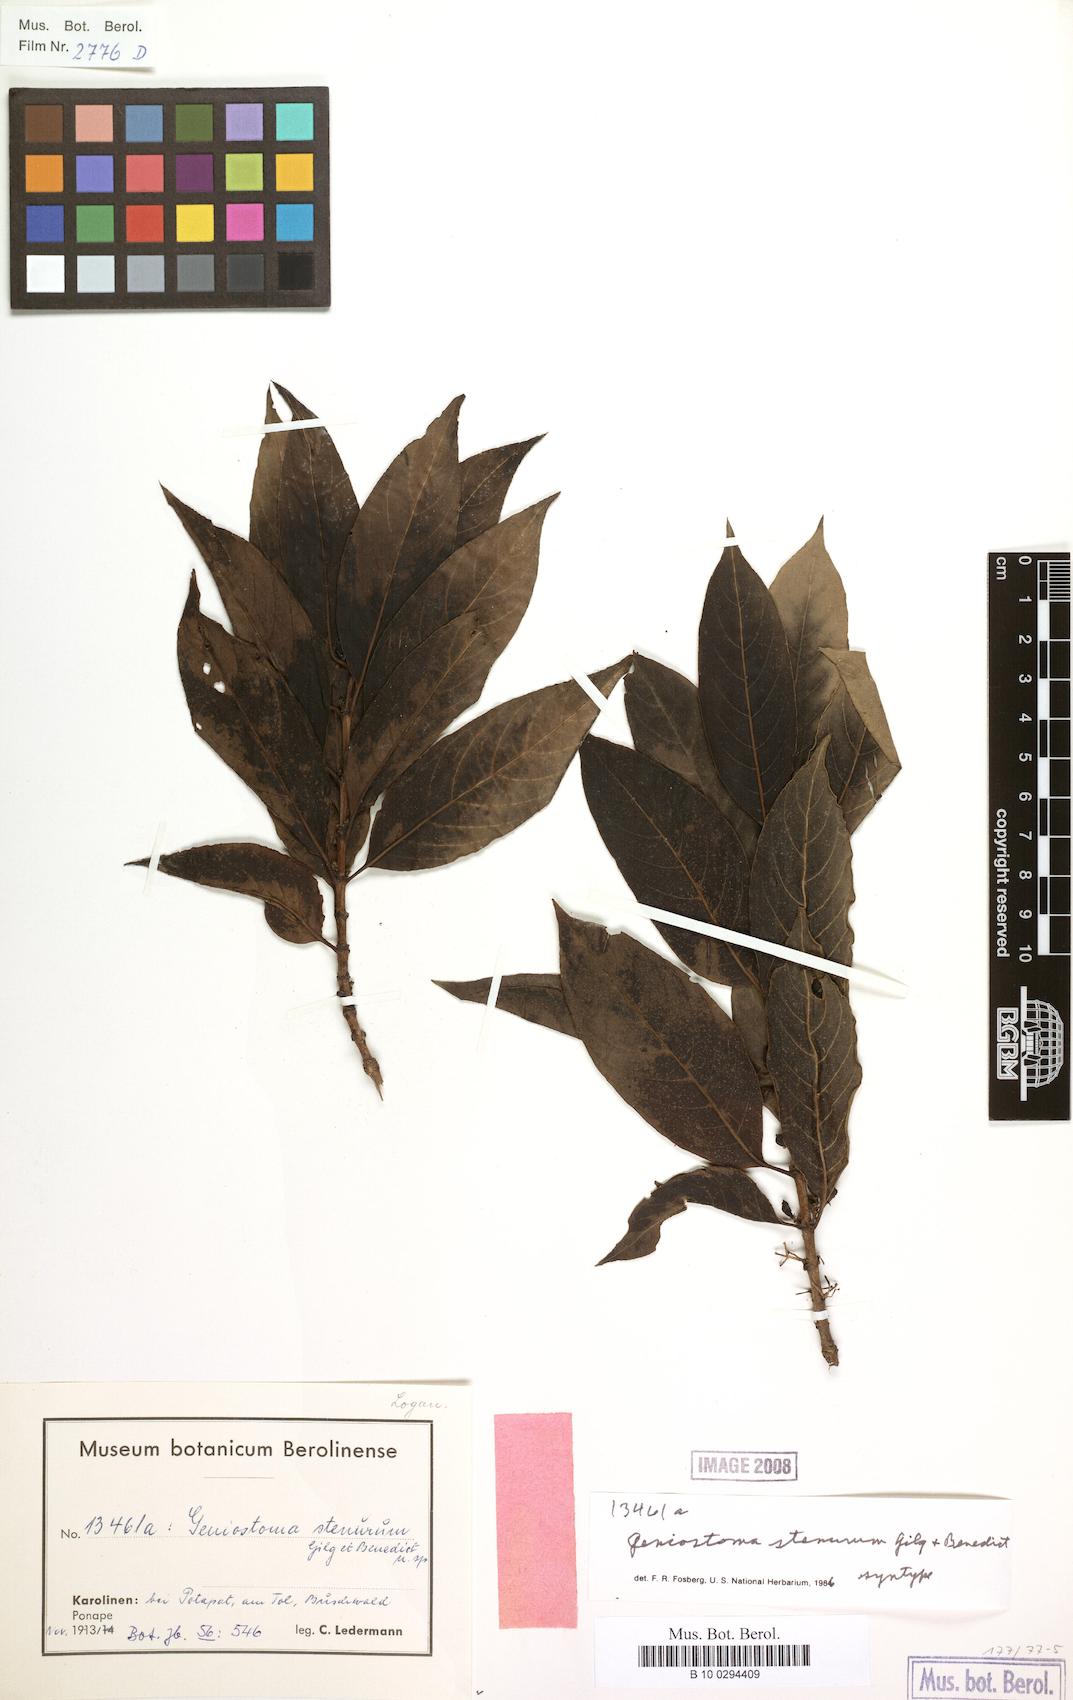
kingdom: Plantae
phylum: Tracheophyta
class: Magnoliopsida
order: Gentianales
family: Loganiaceae
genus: Geniostoma
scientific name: Geniostoma rupestre
